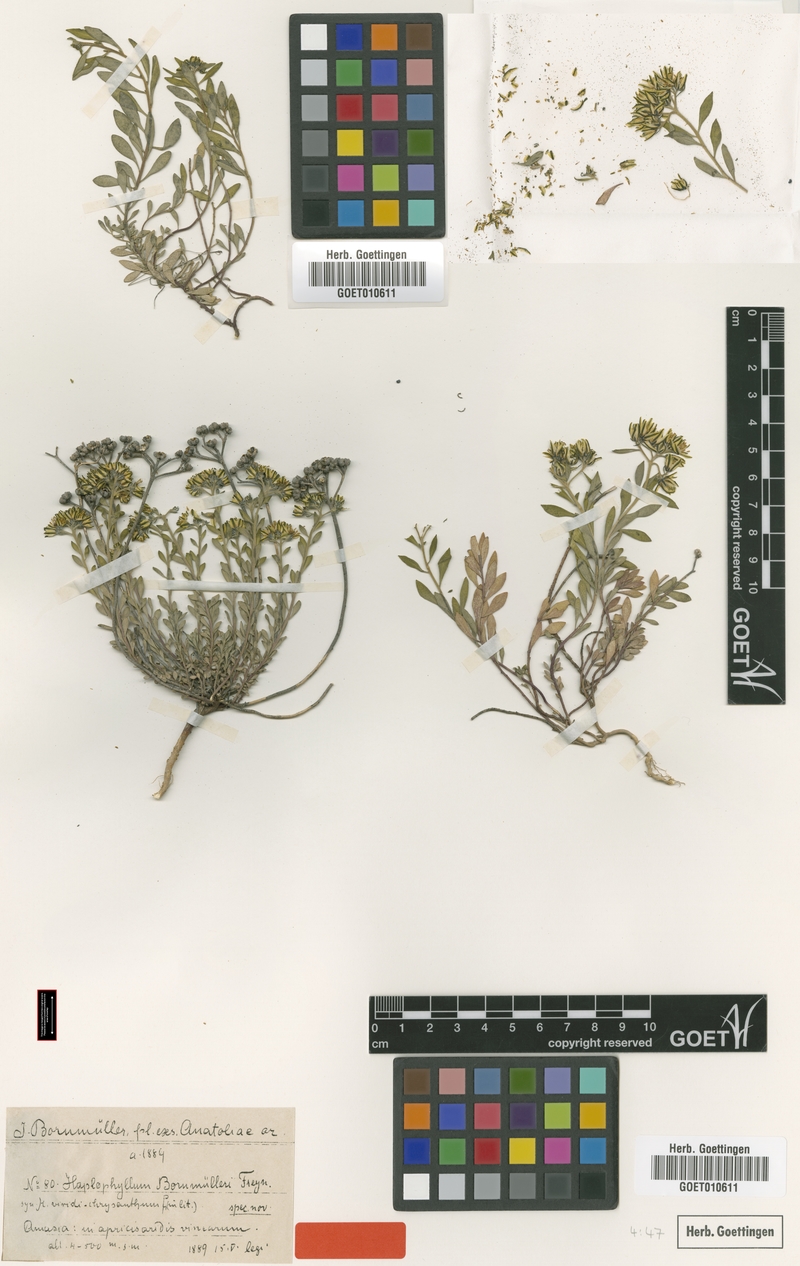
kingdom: Plantae
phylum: Tracheophyta
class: Magnoliopsida
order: Sapindales
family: Rutaceae
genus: Haplophyllum
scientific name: Haplophyllum armenum
